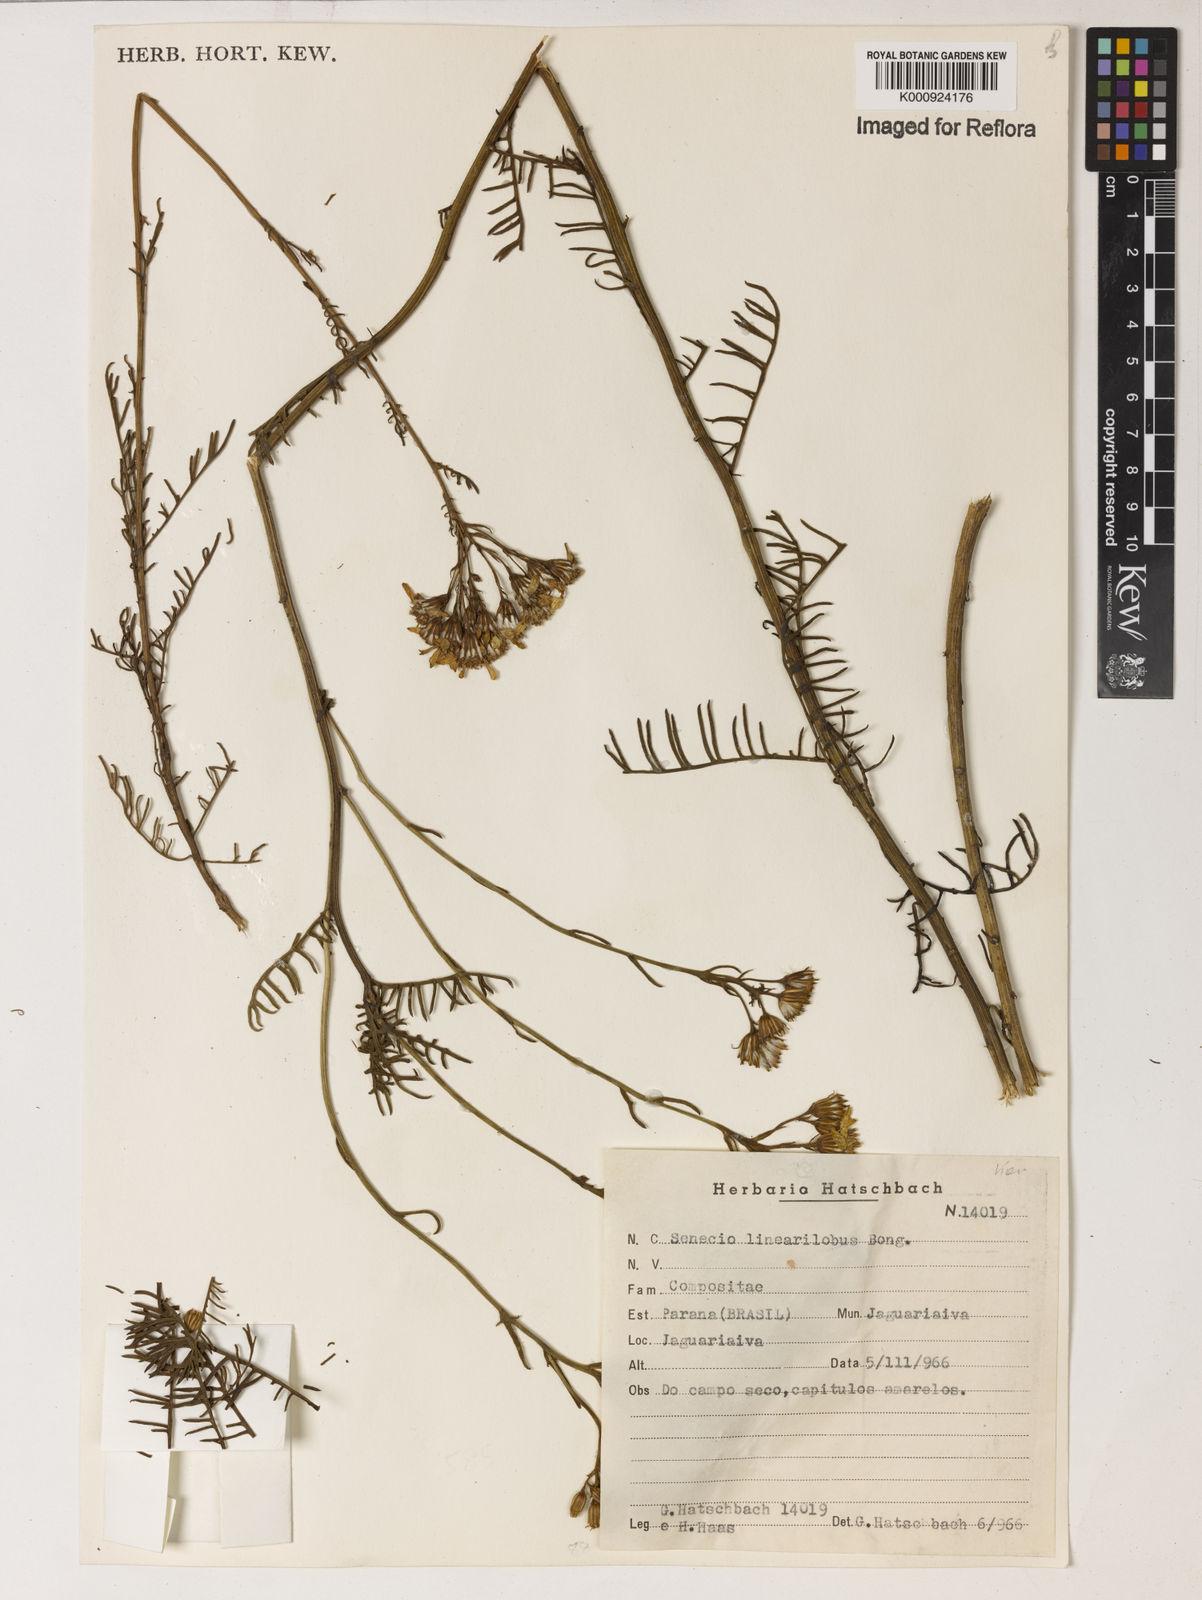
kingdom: Plantae
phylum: Tracheophyta
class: Magnoliopsida
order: Asterales
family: Asteraceae
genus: Senecio
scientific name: Senecio linearilobus
